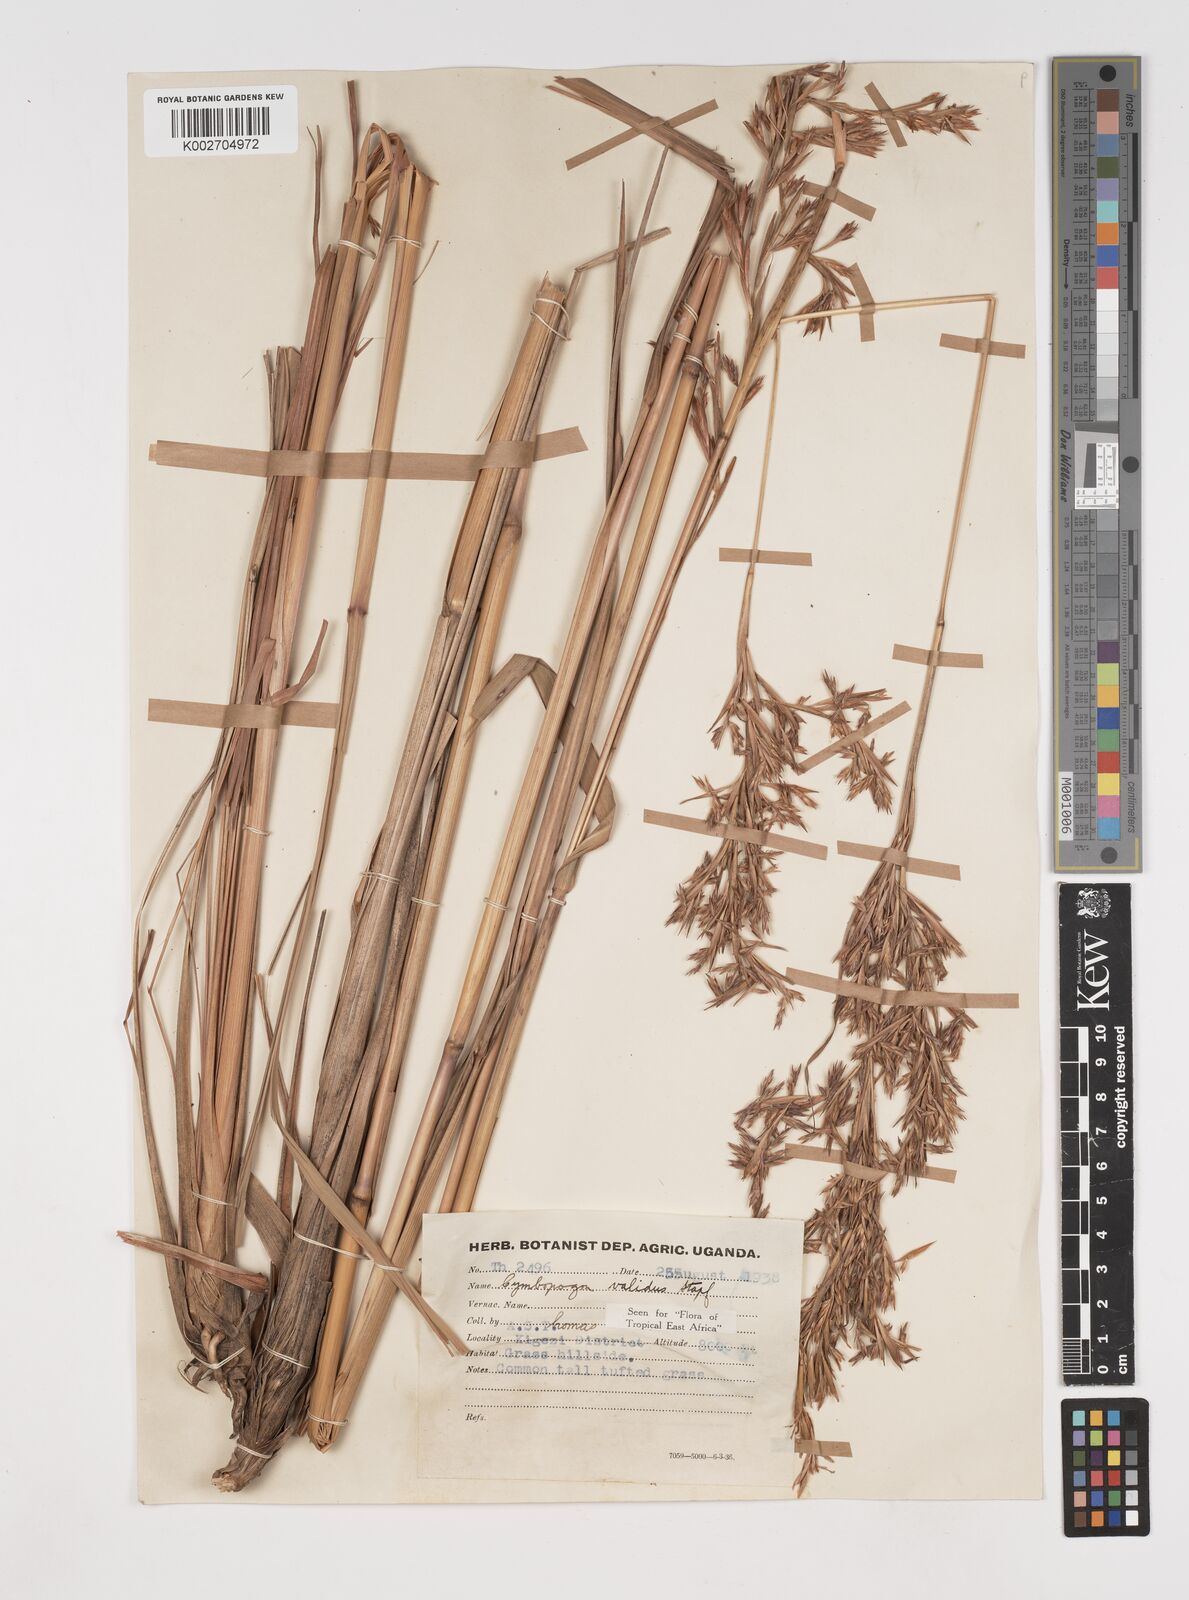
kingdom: Plantae
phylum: Tracheophyta
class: Liliopsida
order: Poales
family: Poaceae
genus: Cymbopogon
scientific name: Cymbopogon nardus
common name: Giant turpentine grass
